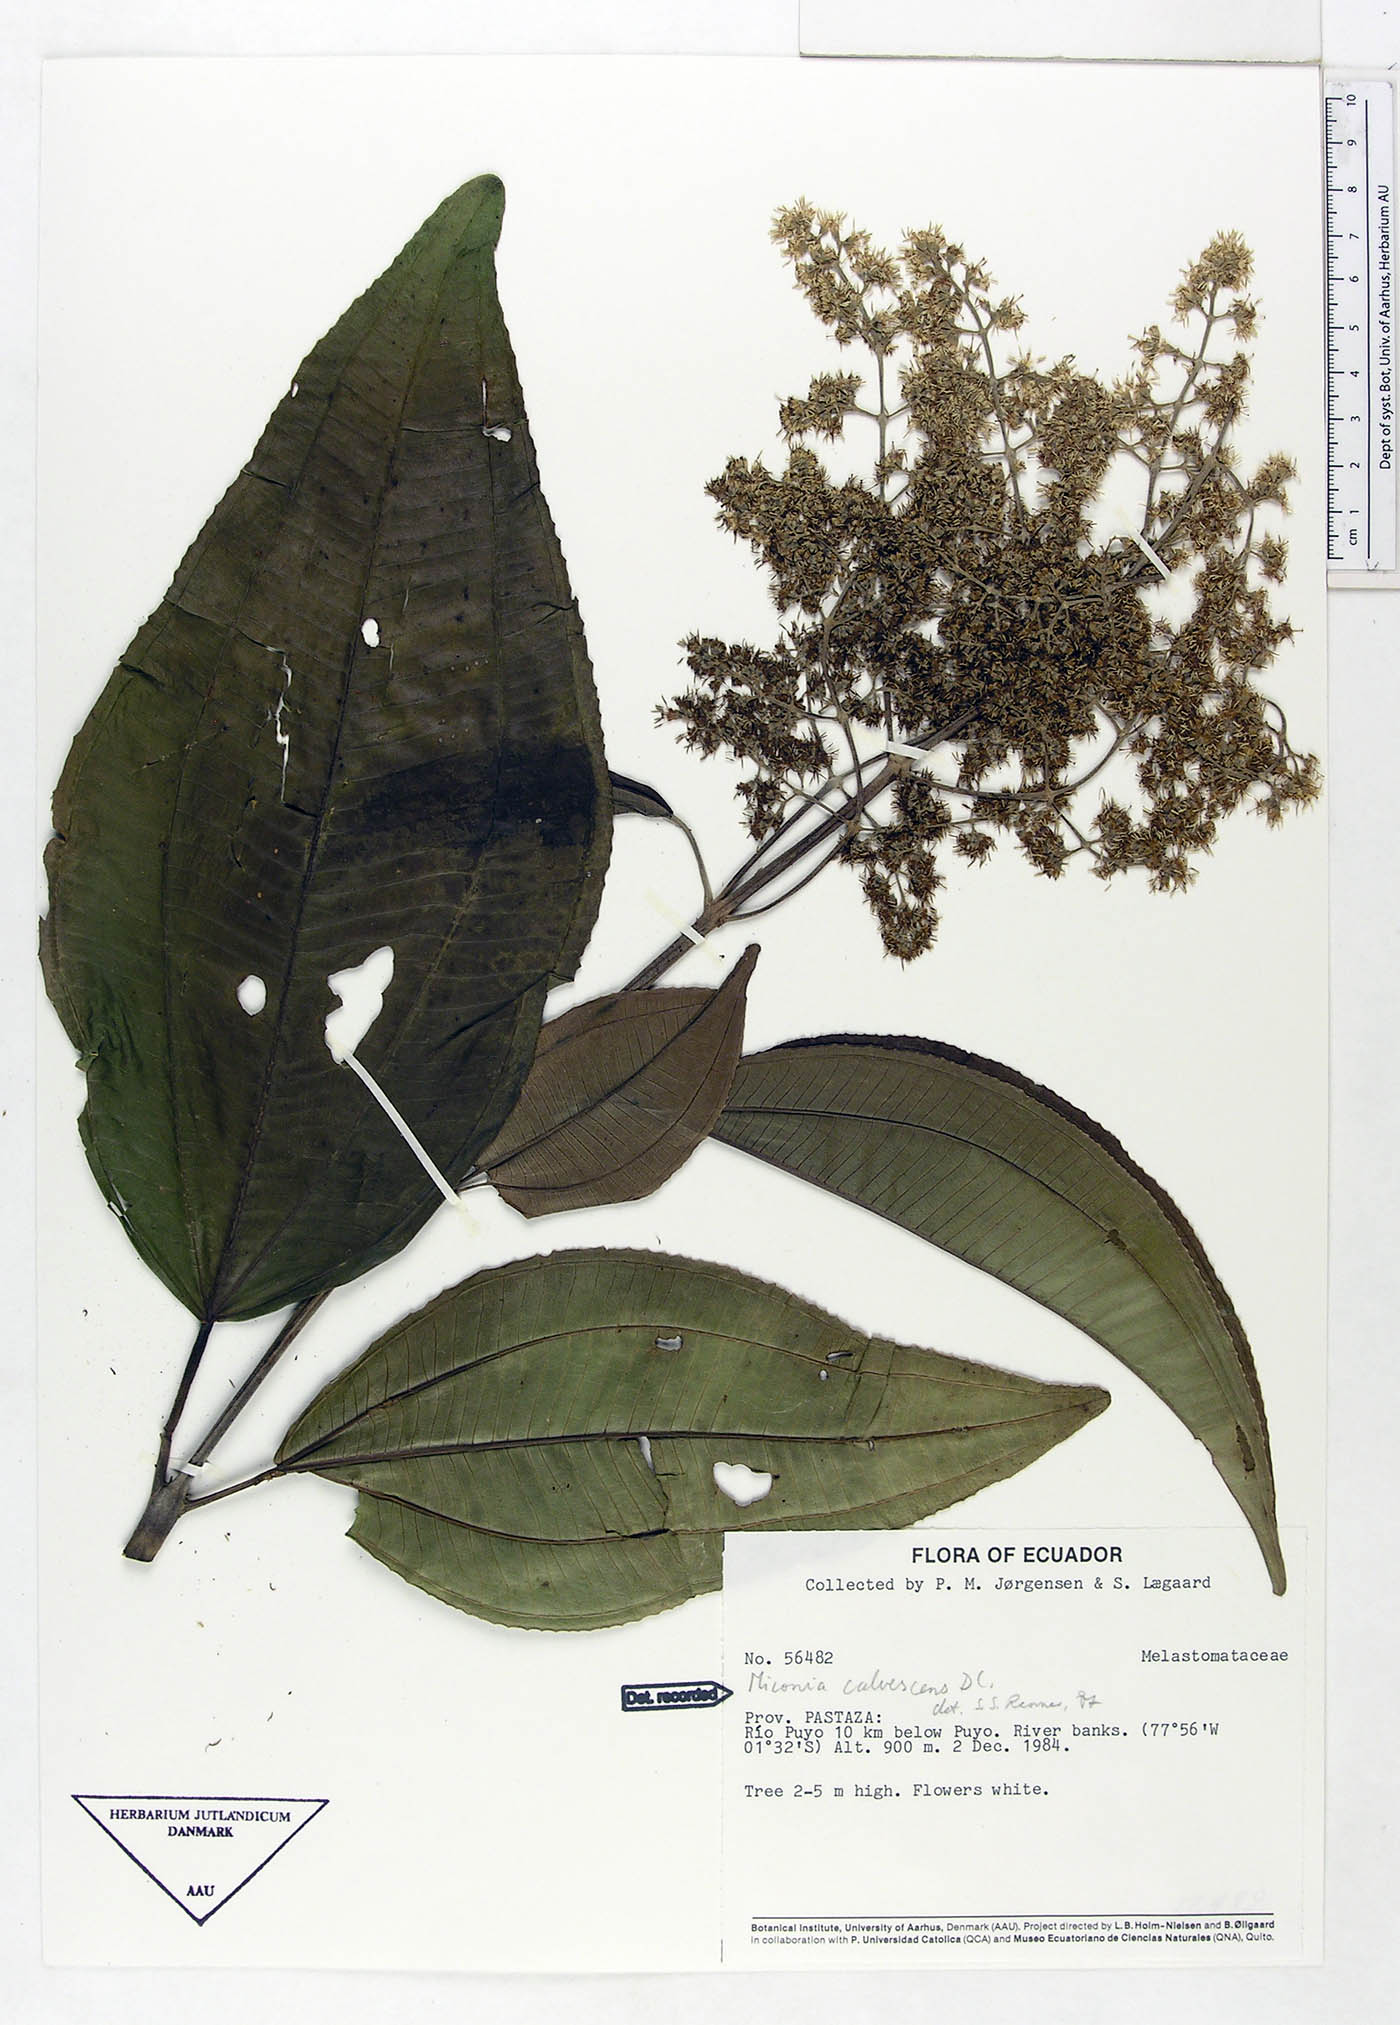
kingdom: Plantae
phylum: Tracheophyta
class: Magnoliopsida
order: Myrtales
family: Melastomataceae
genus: Miconia
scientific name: Miconia calvescens
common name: Purple plague
